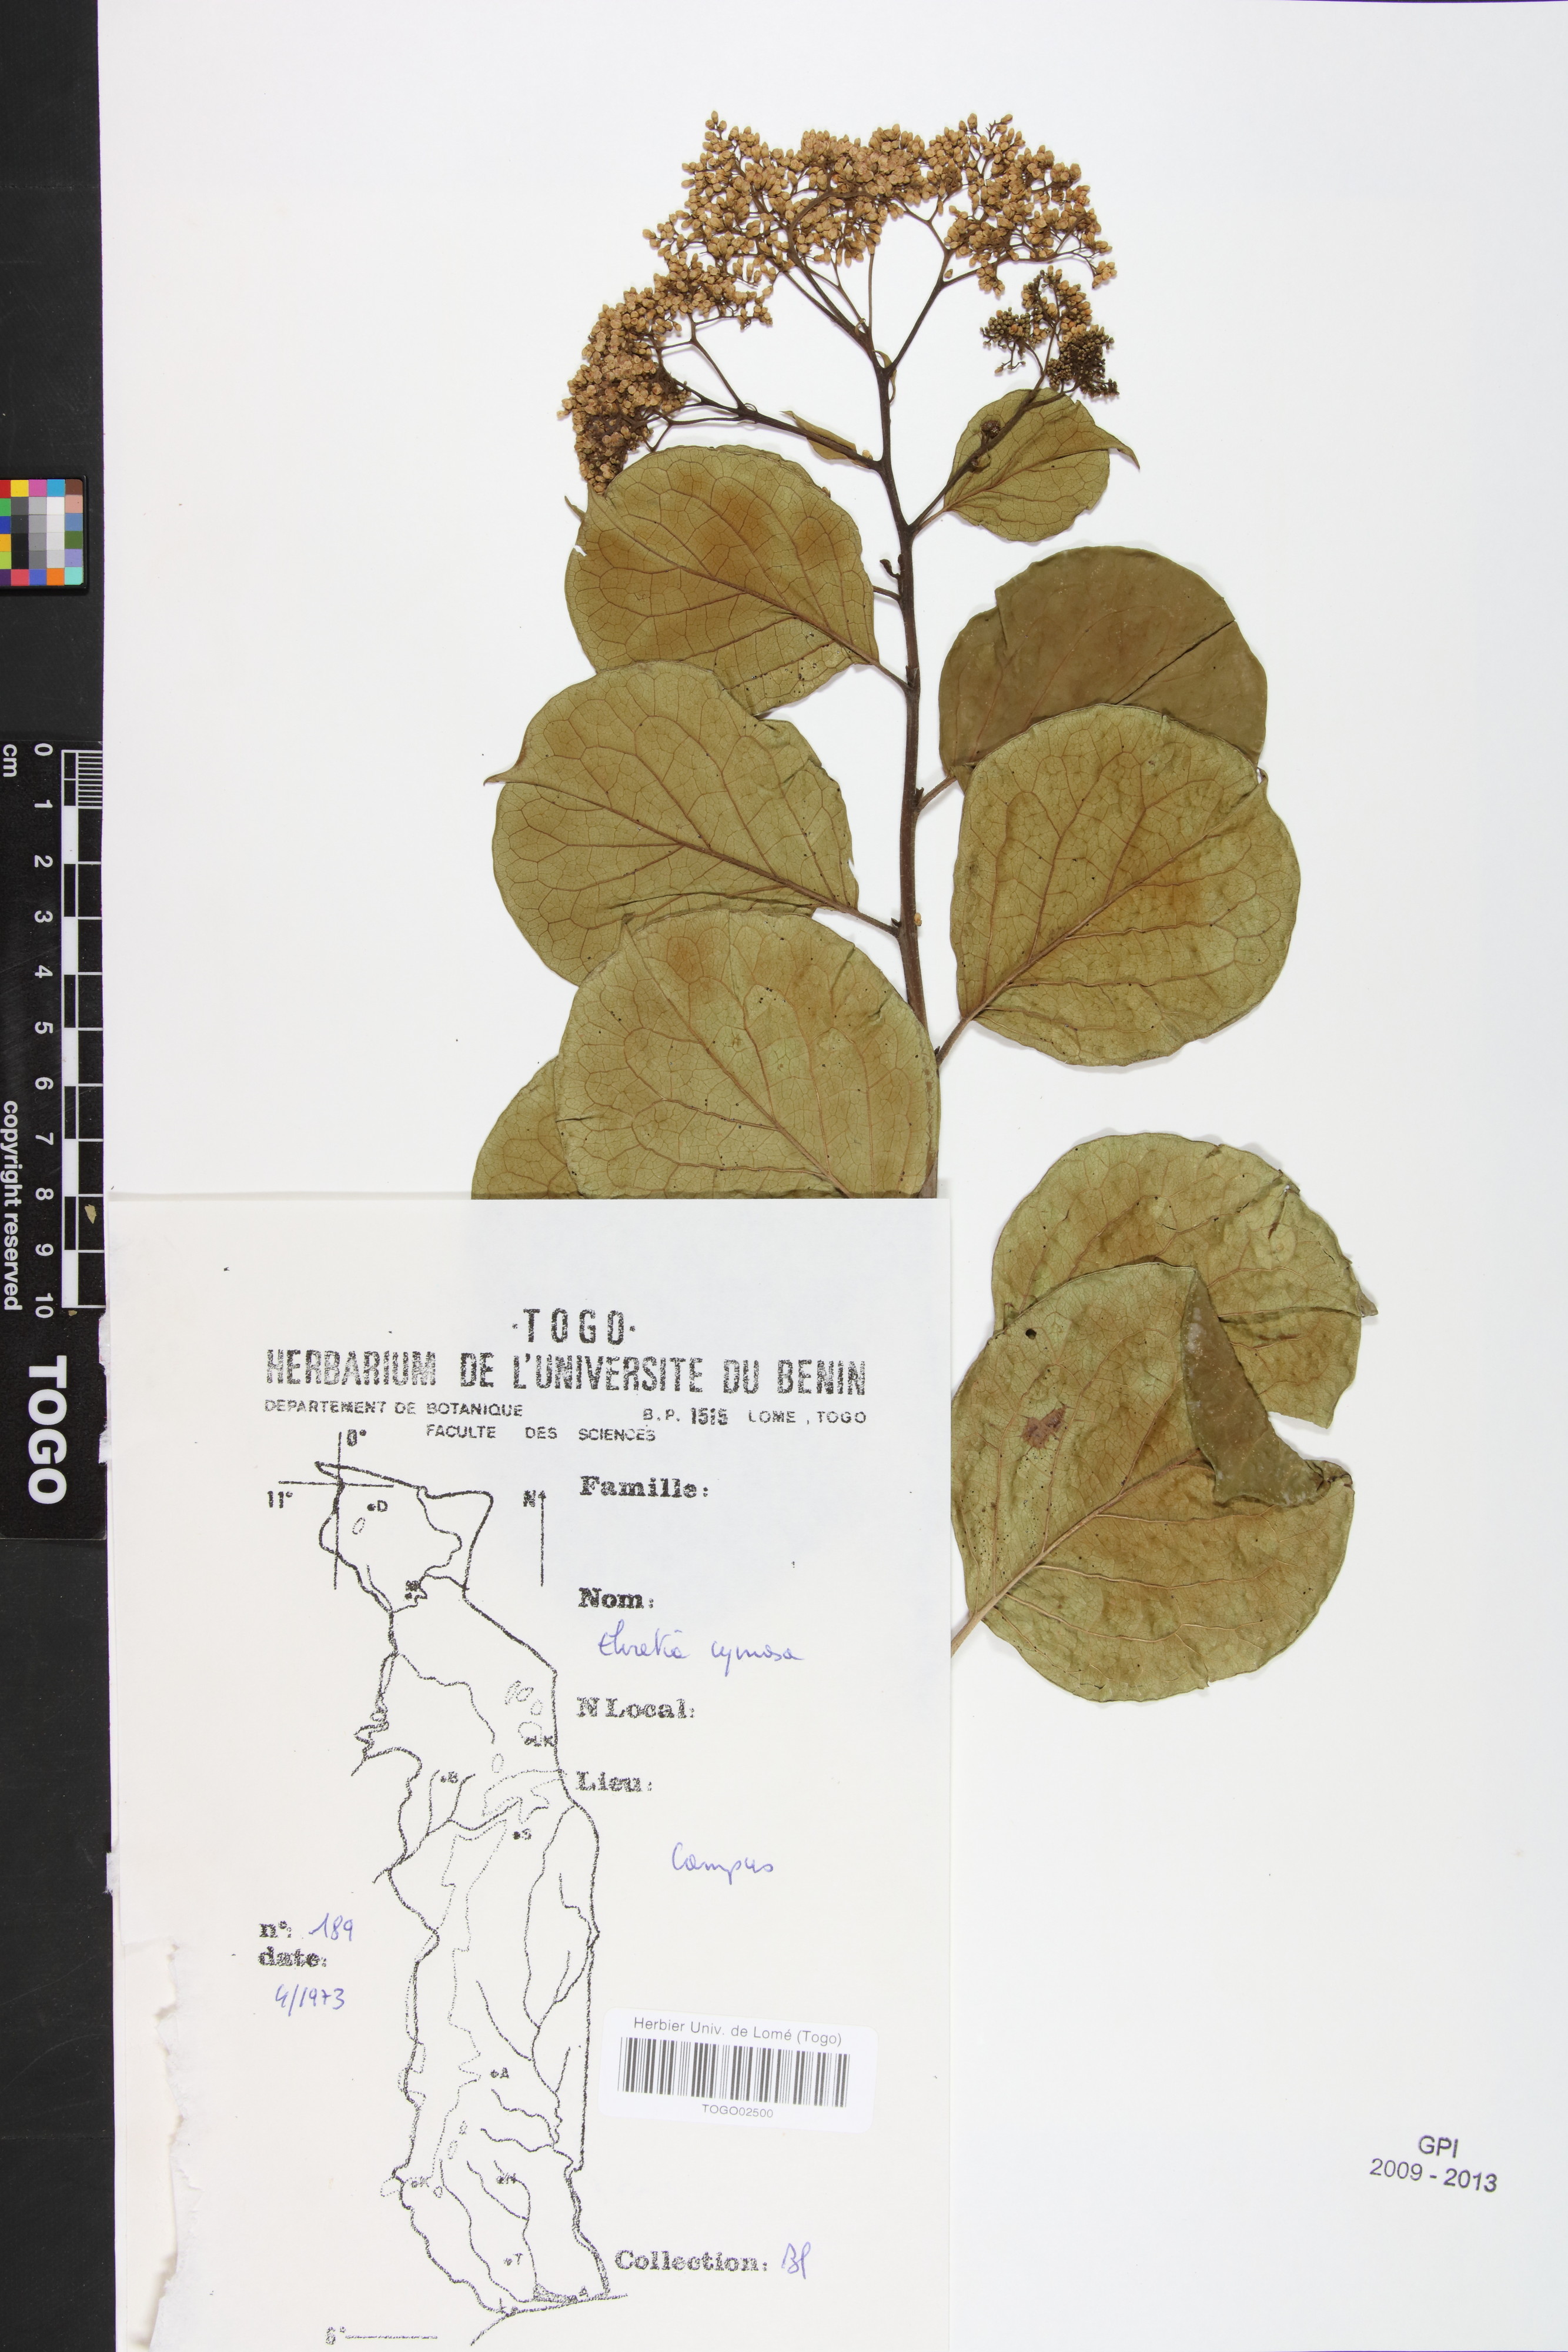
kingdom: Plantae
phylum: Tracheophyta
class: Magnoliopsida
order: Boraginales
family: Ehretiaceae
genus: Ehretia
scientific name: Ehretia cymosa
